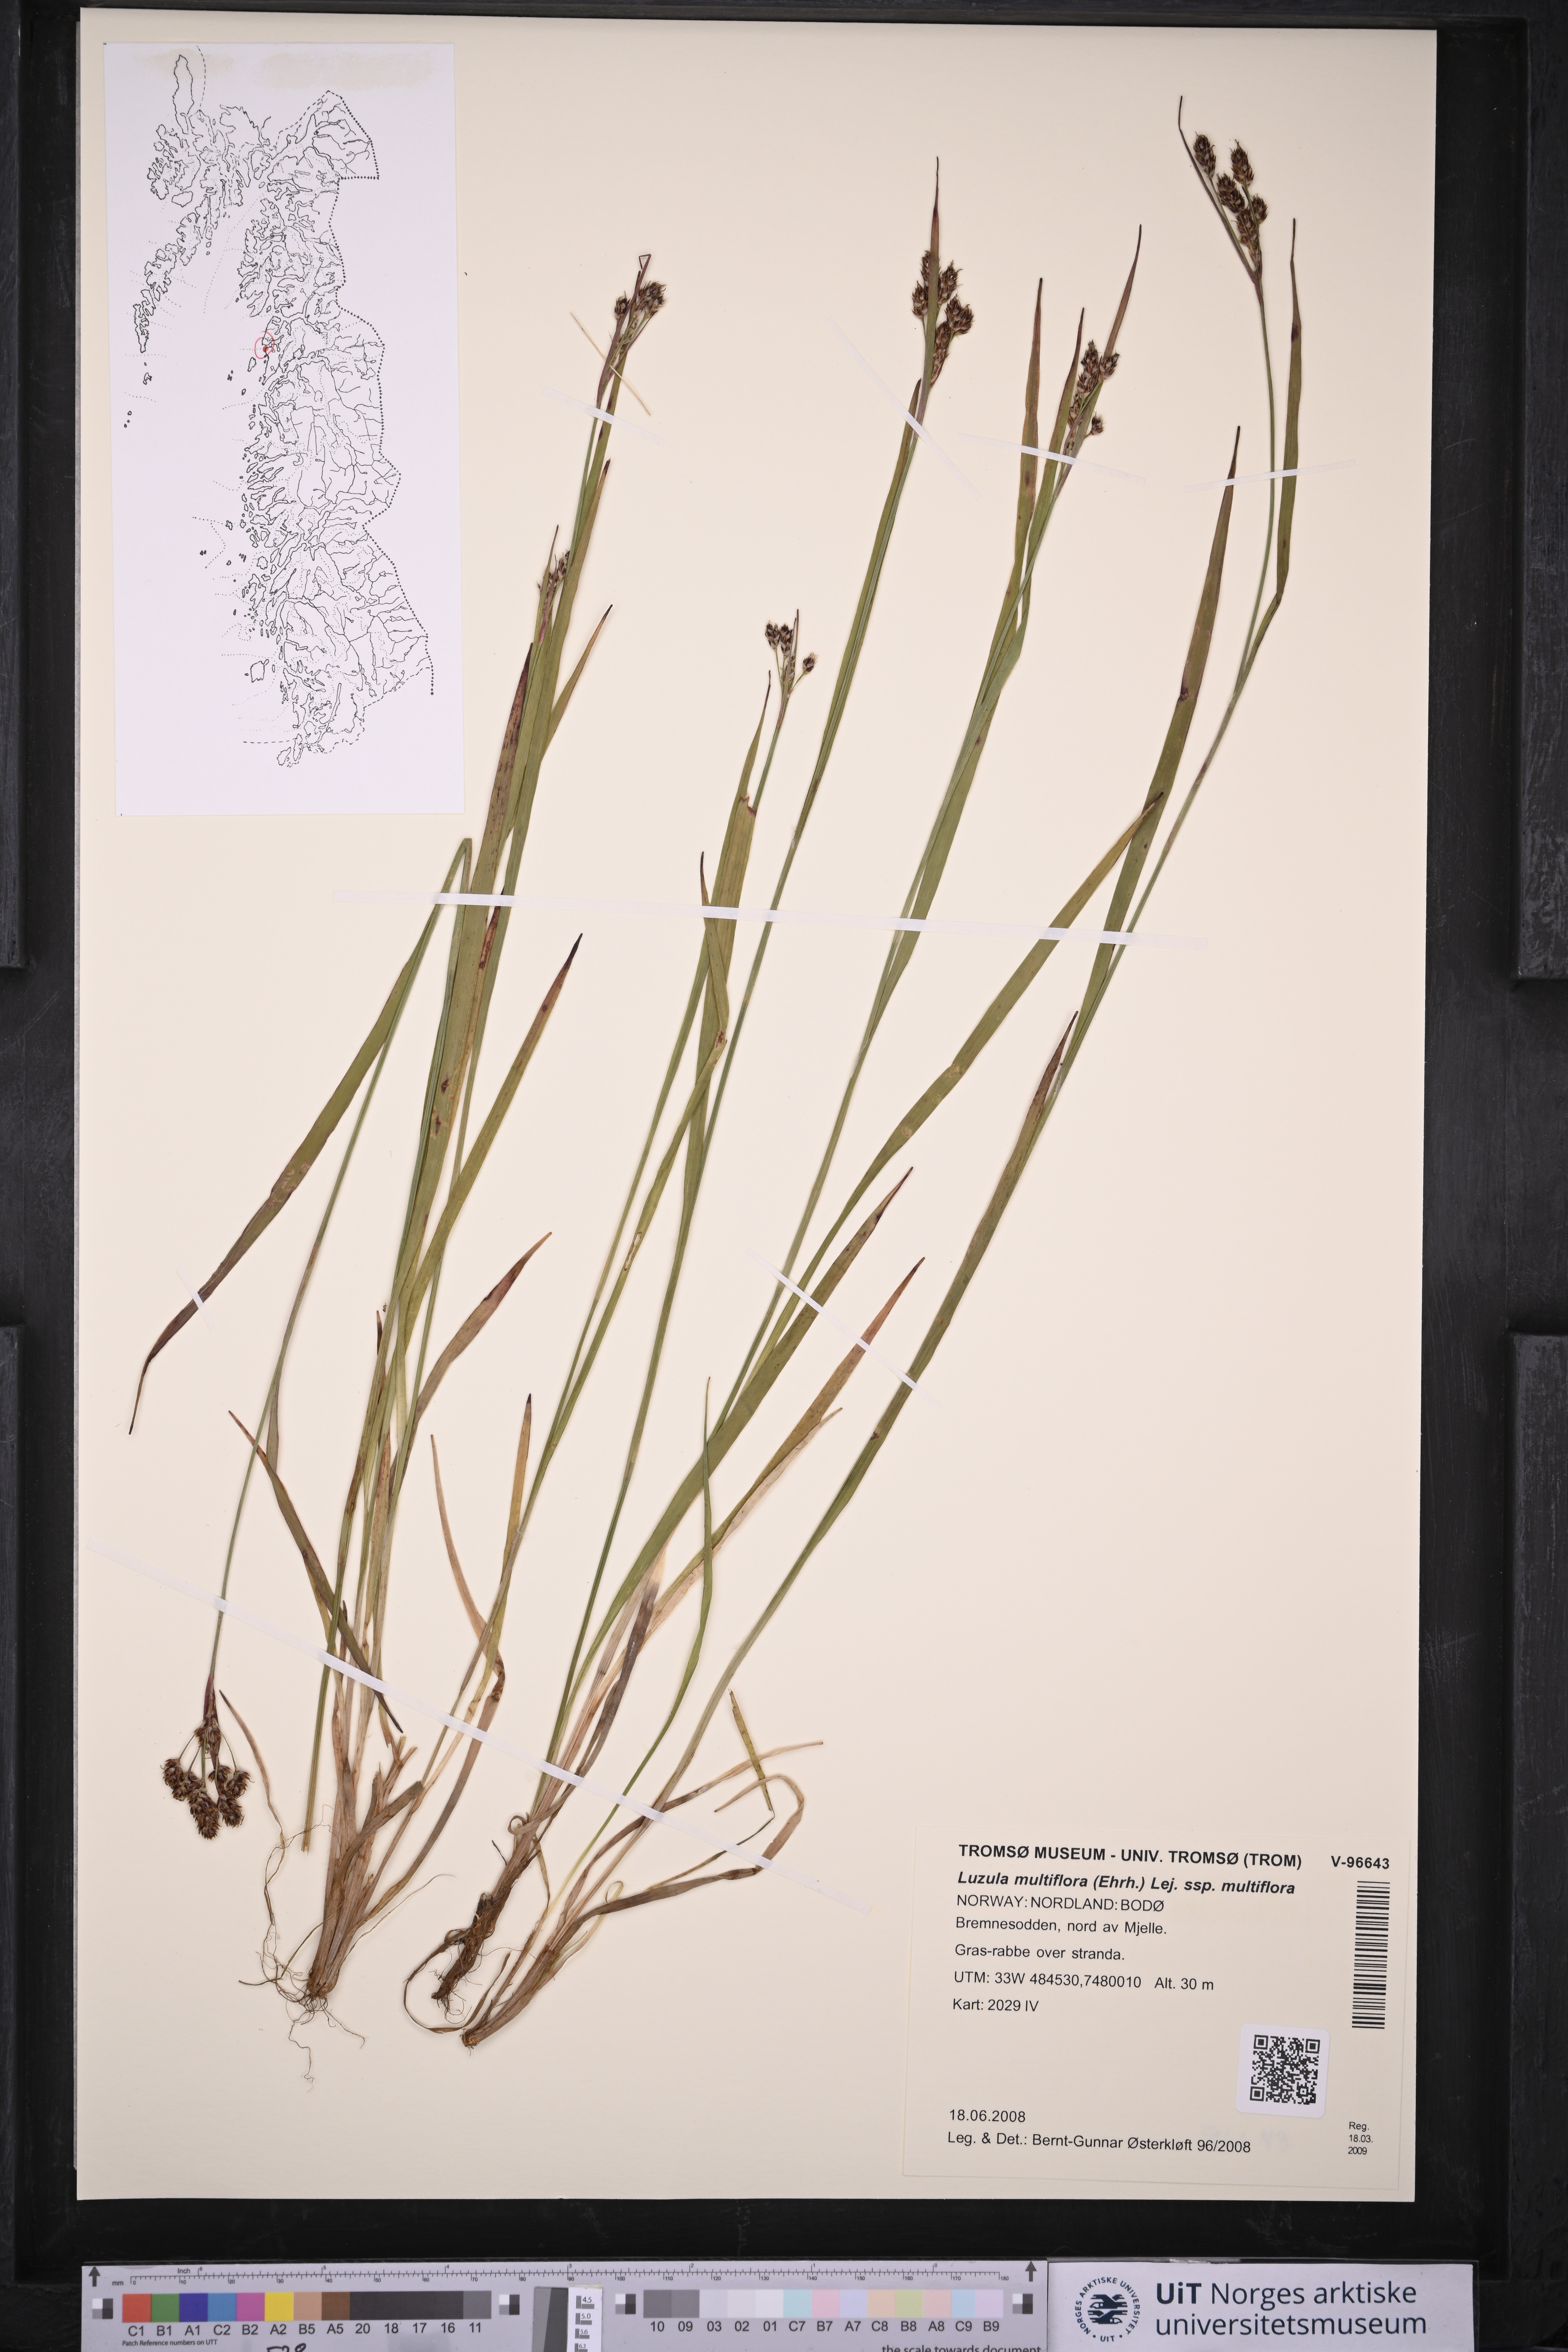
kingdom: Plantae
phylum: Tracheophyta
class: Liliopsida
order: Poales
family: Juncaceae
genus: Luzula
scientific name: Luzula multiflora
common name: Heath wood-rush
